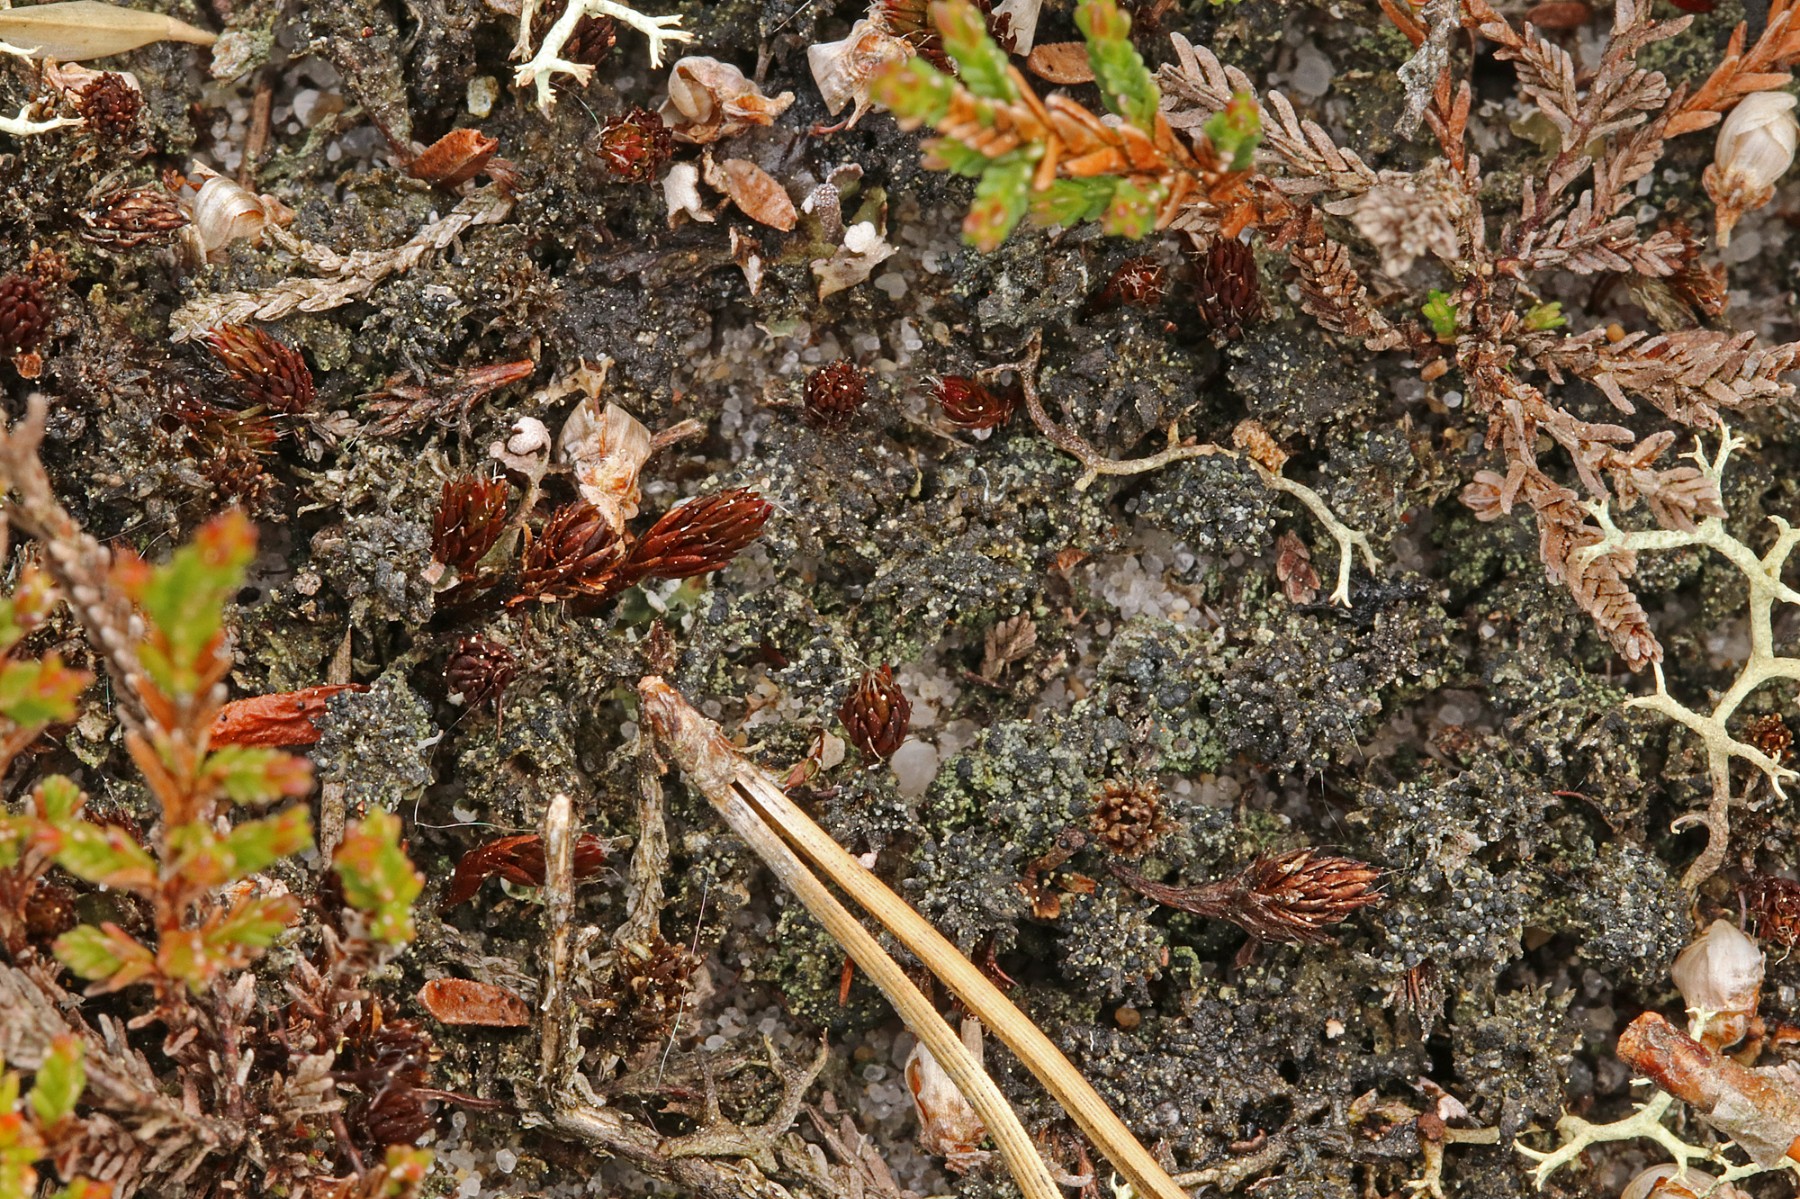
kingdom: Fungi
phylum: Ascomycota
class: Lecanoromycetes
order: Lecanorales
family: Byssolomataceae
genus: Micarea
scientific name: Micarea lignaria
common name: tørve-knaplav
